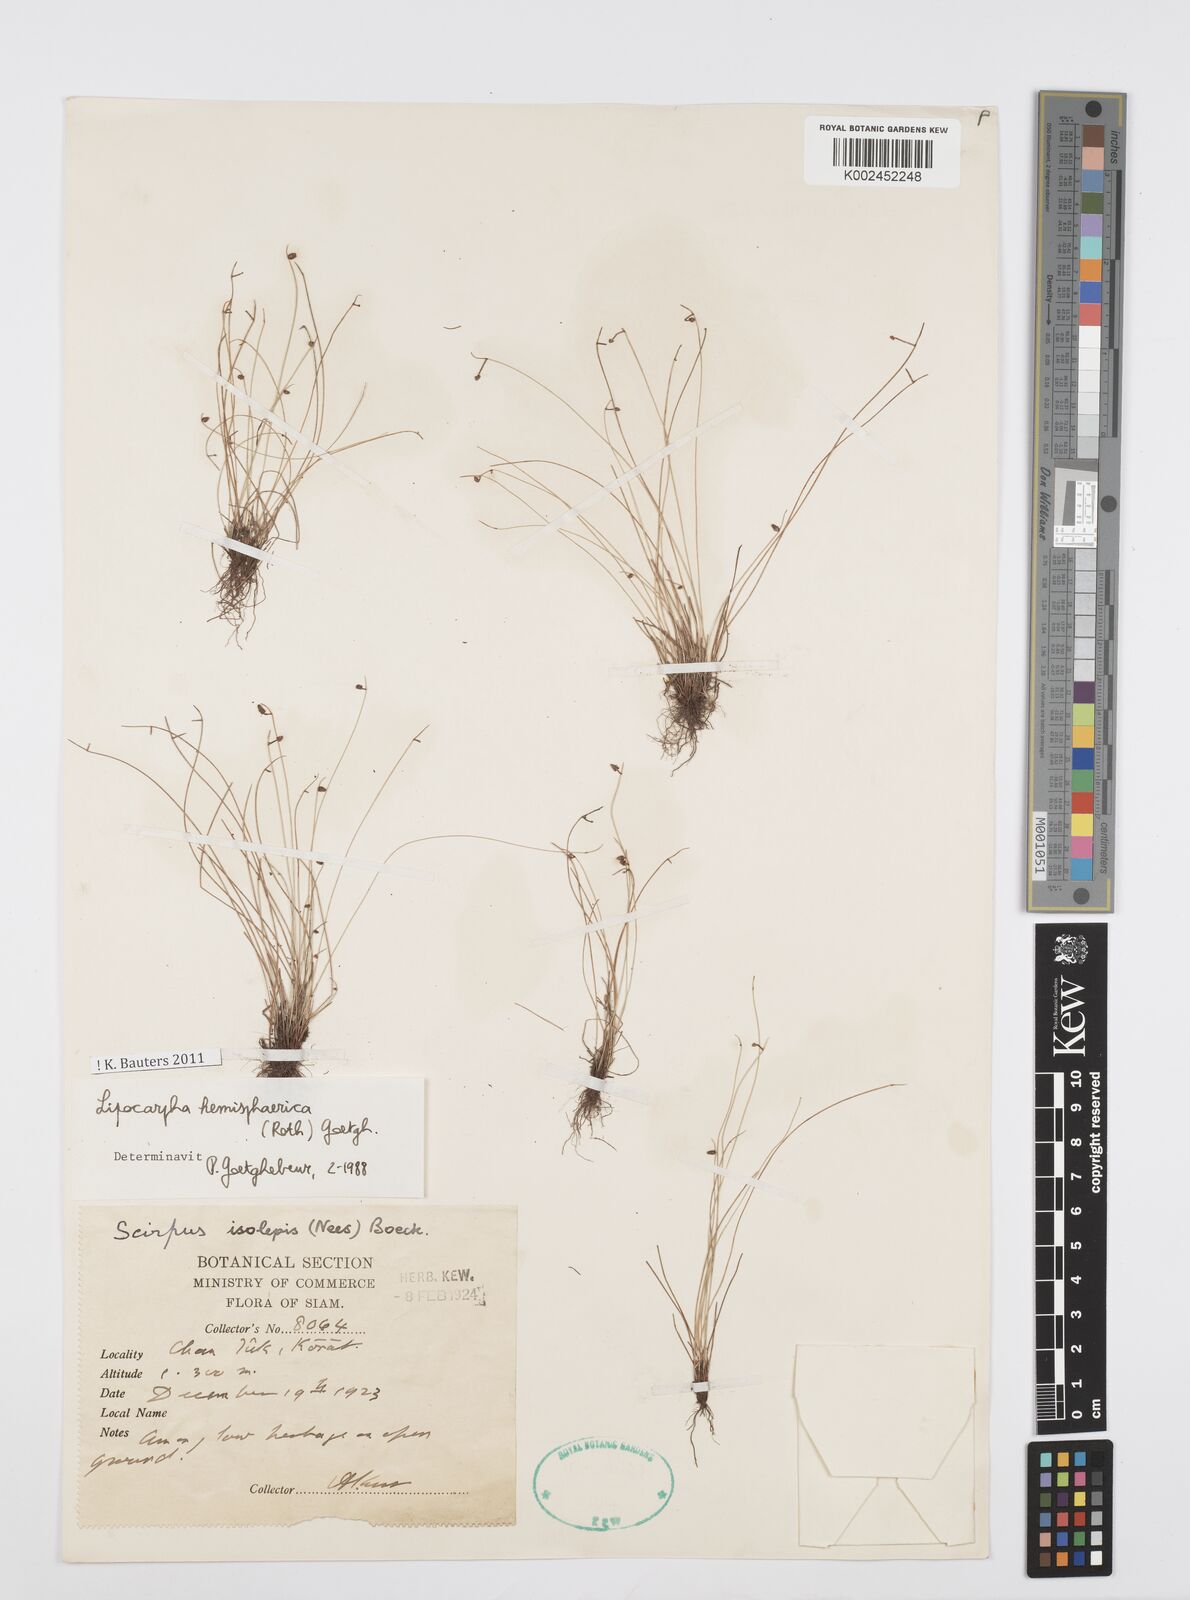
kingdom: Plantae
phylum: Tracheophyta
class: Liliopsida
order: Poales
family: Cyperaceae
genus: Cyperus
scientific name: Cyperus
